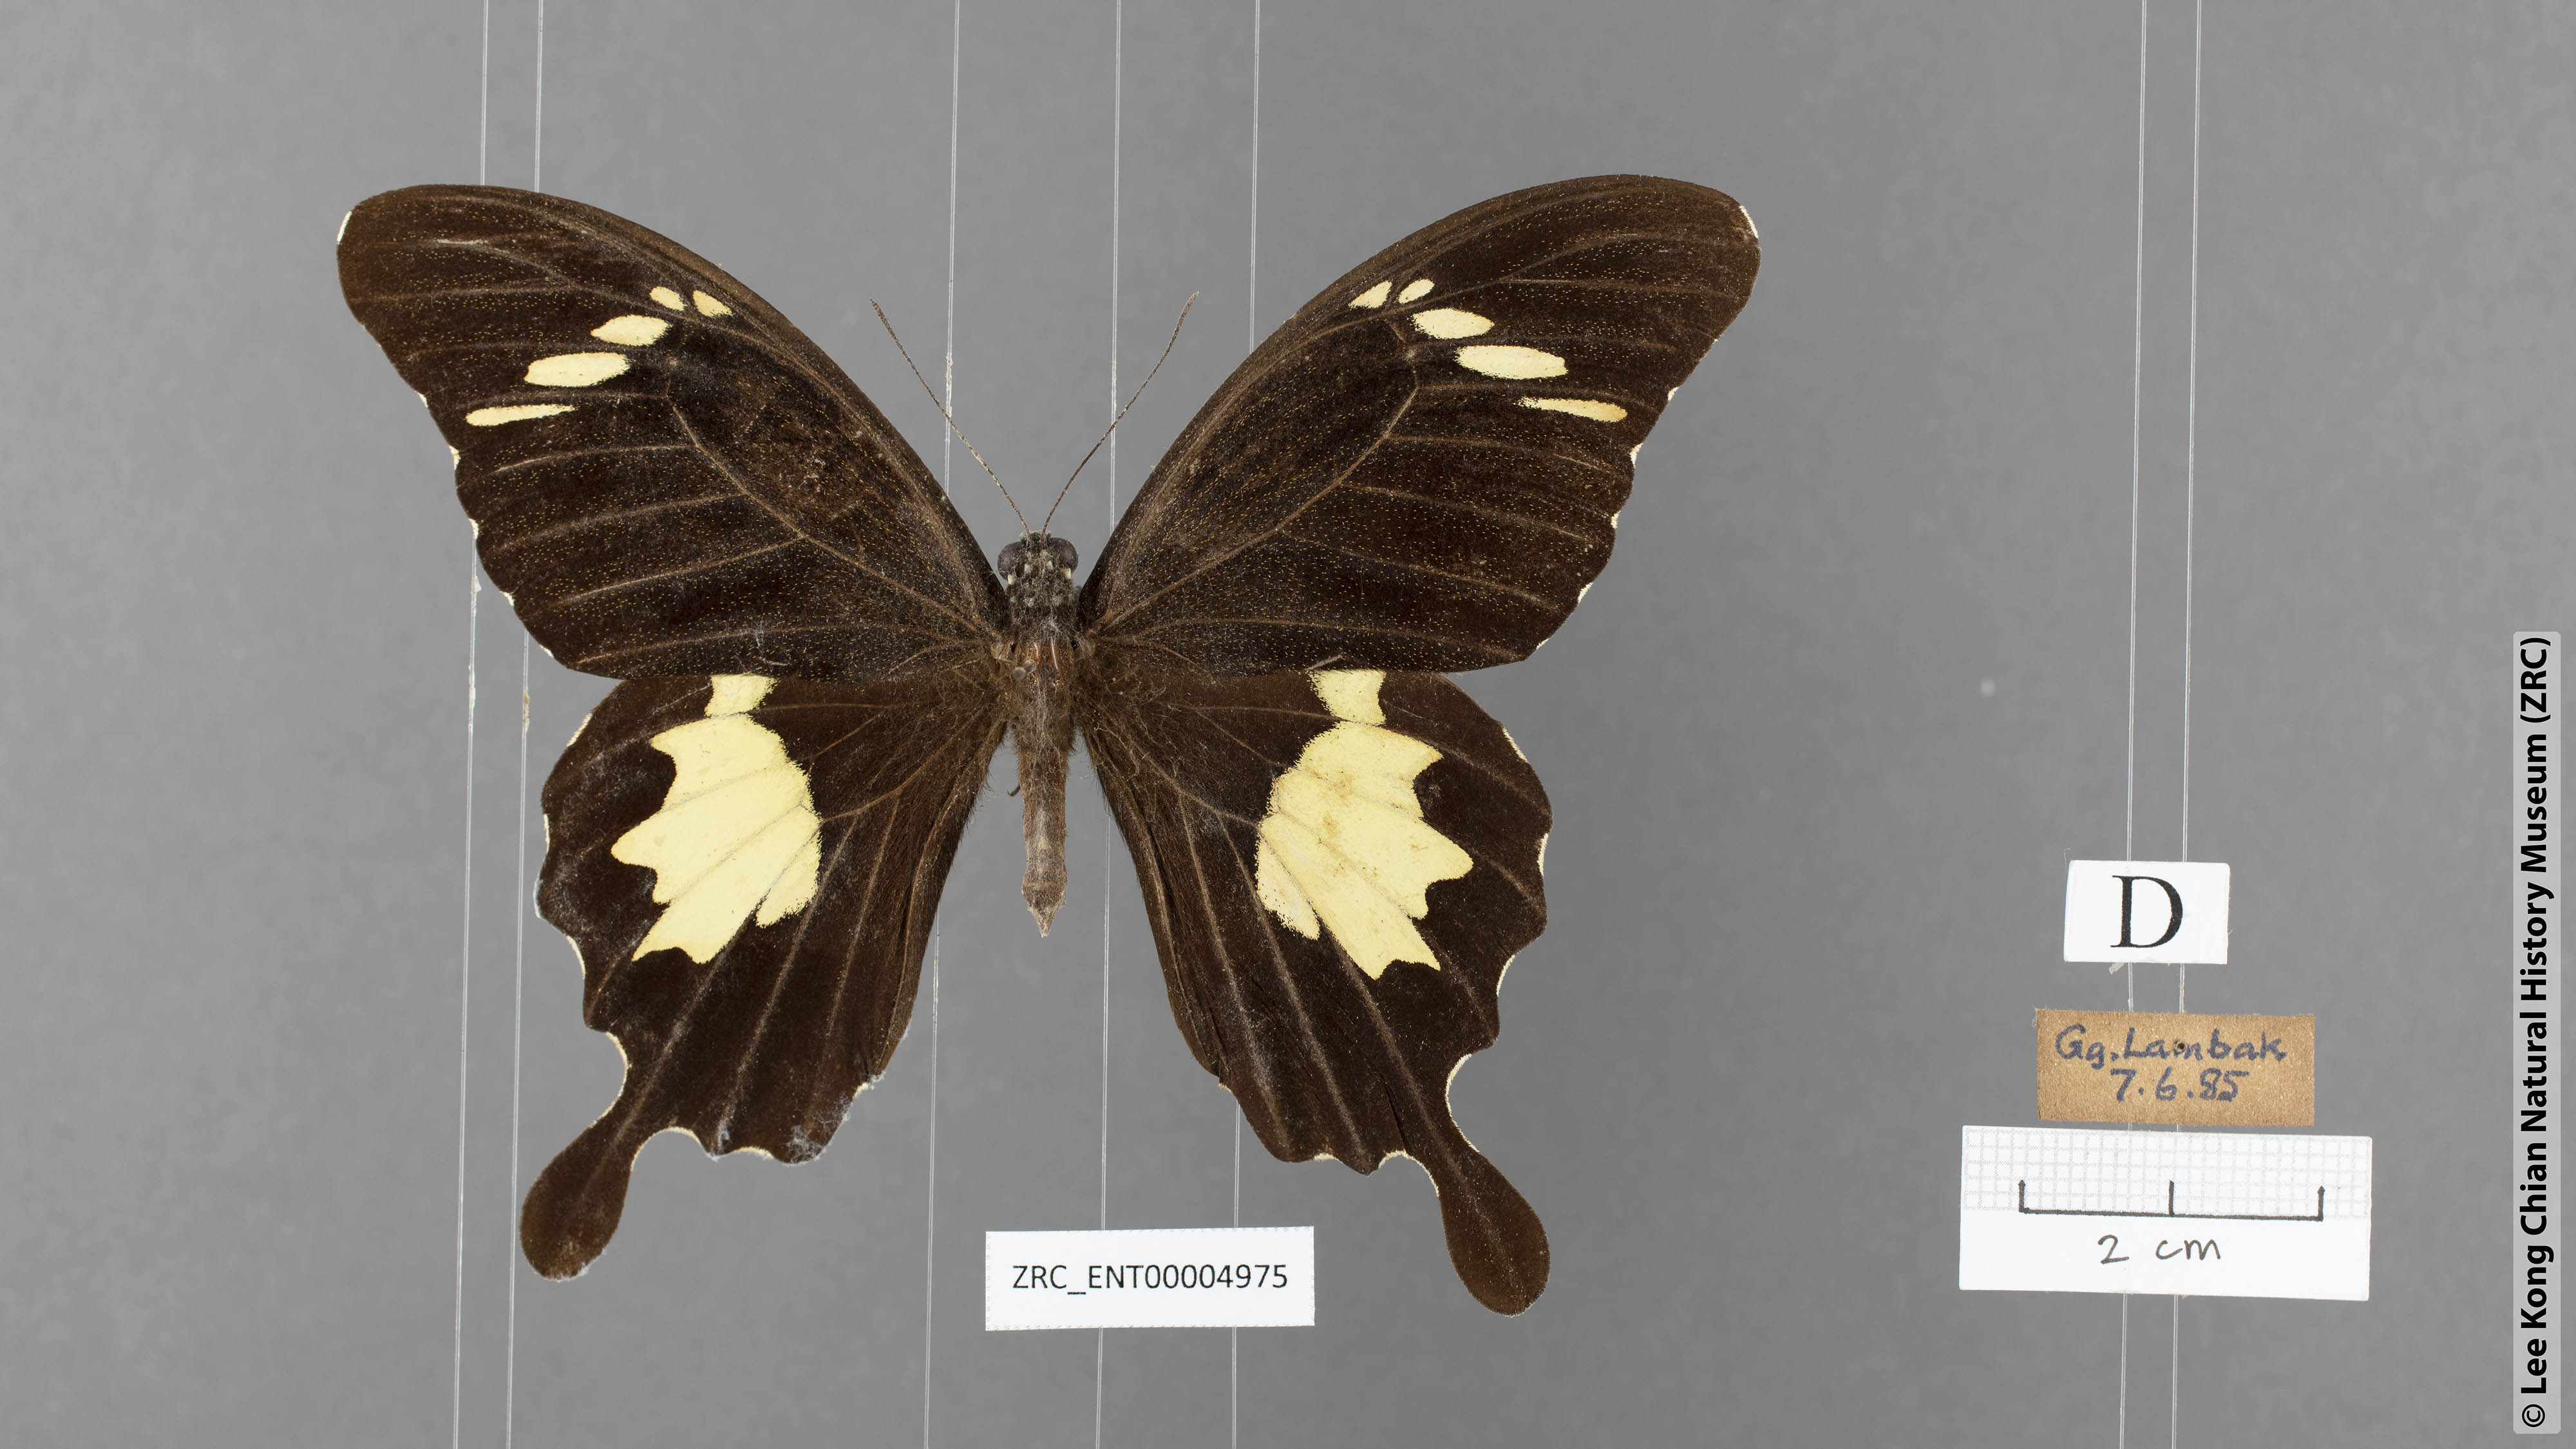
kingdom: Animalia
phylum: Arthropoda
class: Insecta
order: Lepidoptera
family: Papilionidae
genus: Papilio
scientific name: Papilio nephelus
